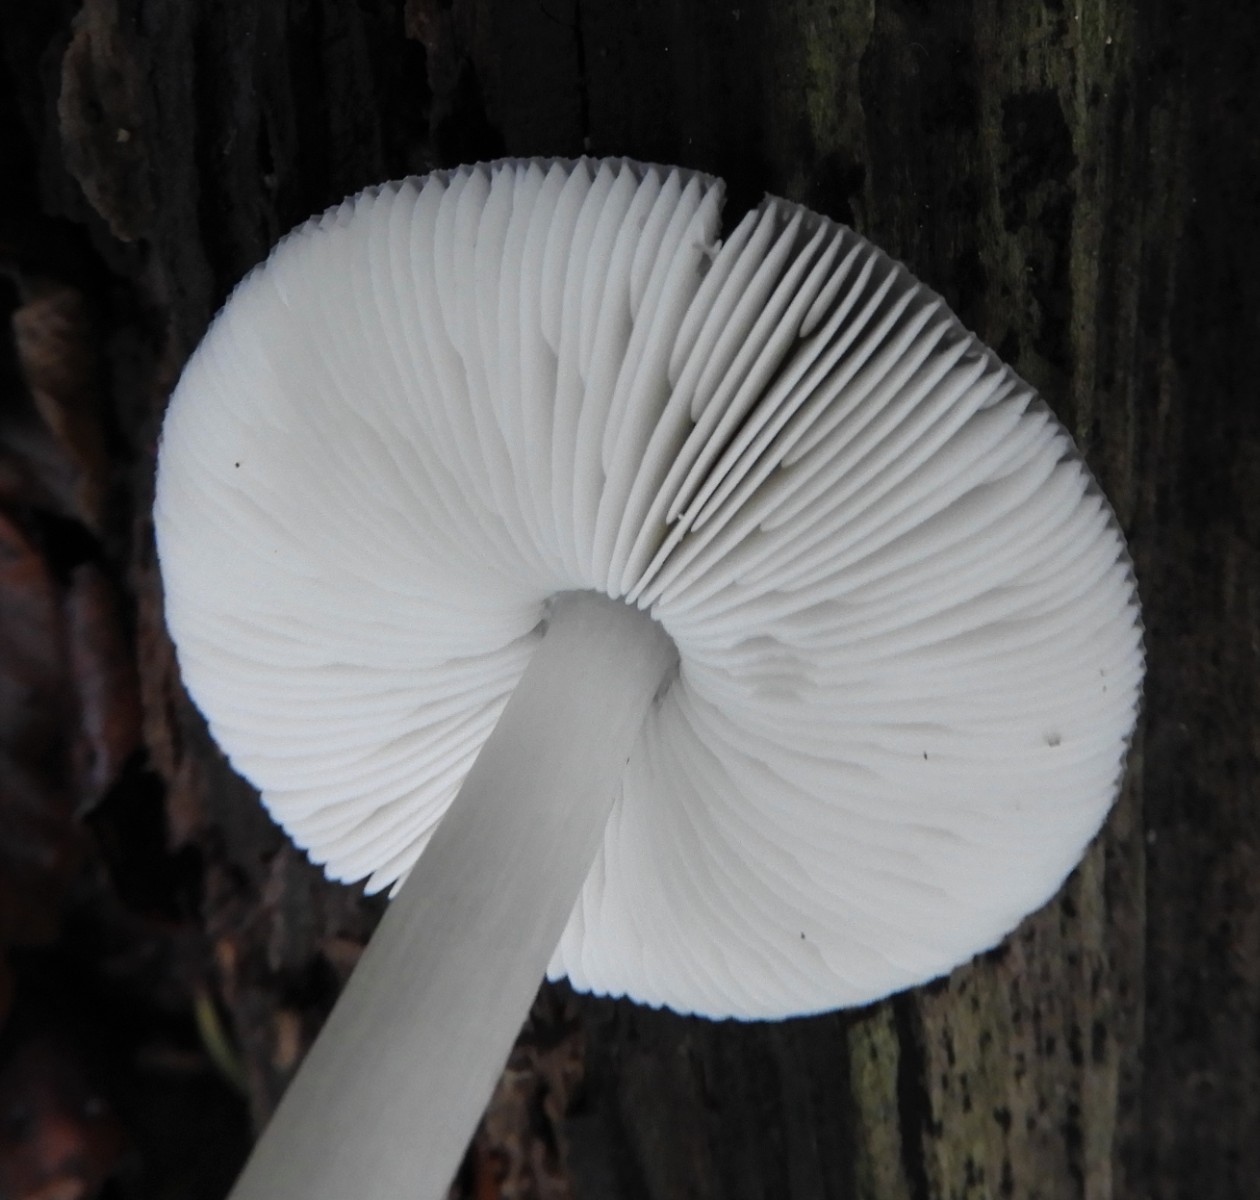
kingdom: Fungi
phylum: Basidiomycota
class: Agaricomycetes
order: Agaricales
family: Pluteaceae
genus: Pluteus
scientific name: Pluteus salicinus
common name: stiv skærmhat
